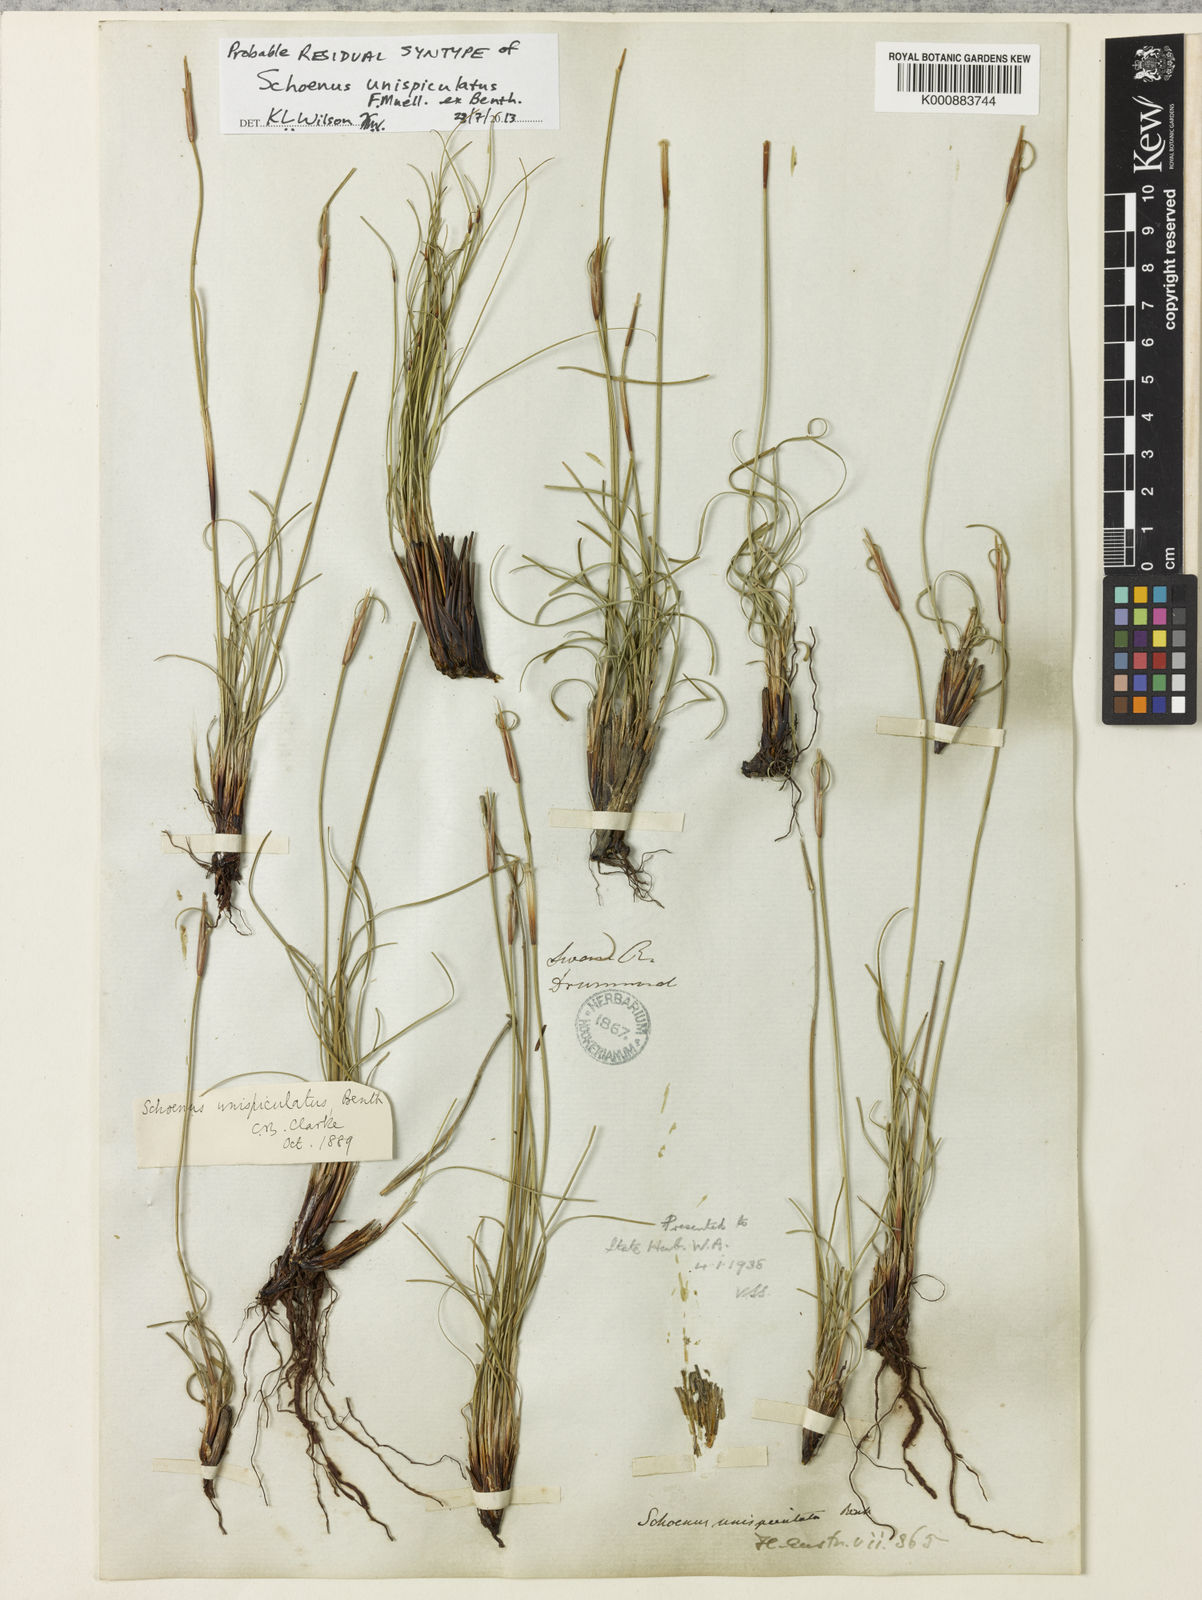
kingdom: Plantae
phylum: Tracheophyta
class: Liliopsida
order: Poales
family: Cyperaceae
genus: Schoenus
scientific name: Schoenus unispiculatus
